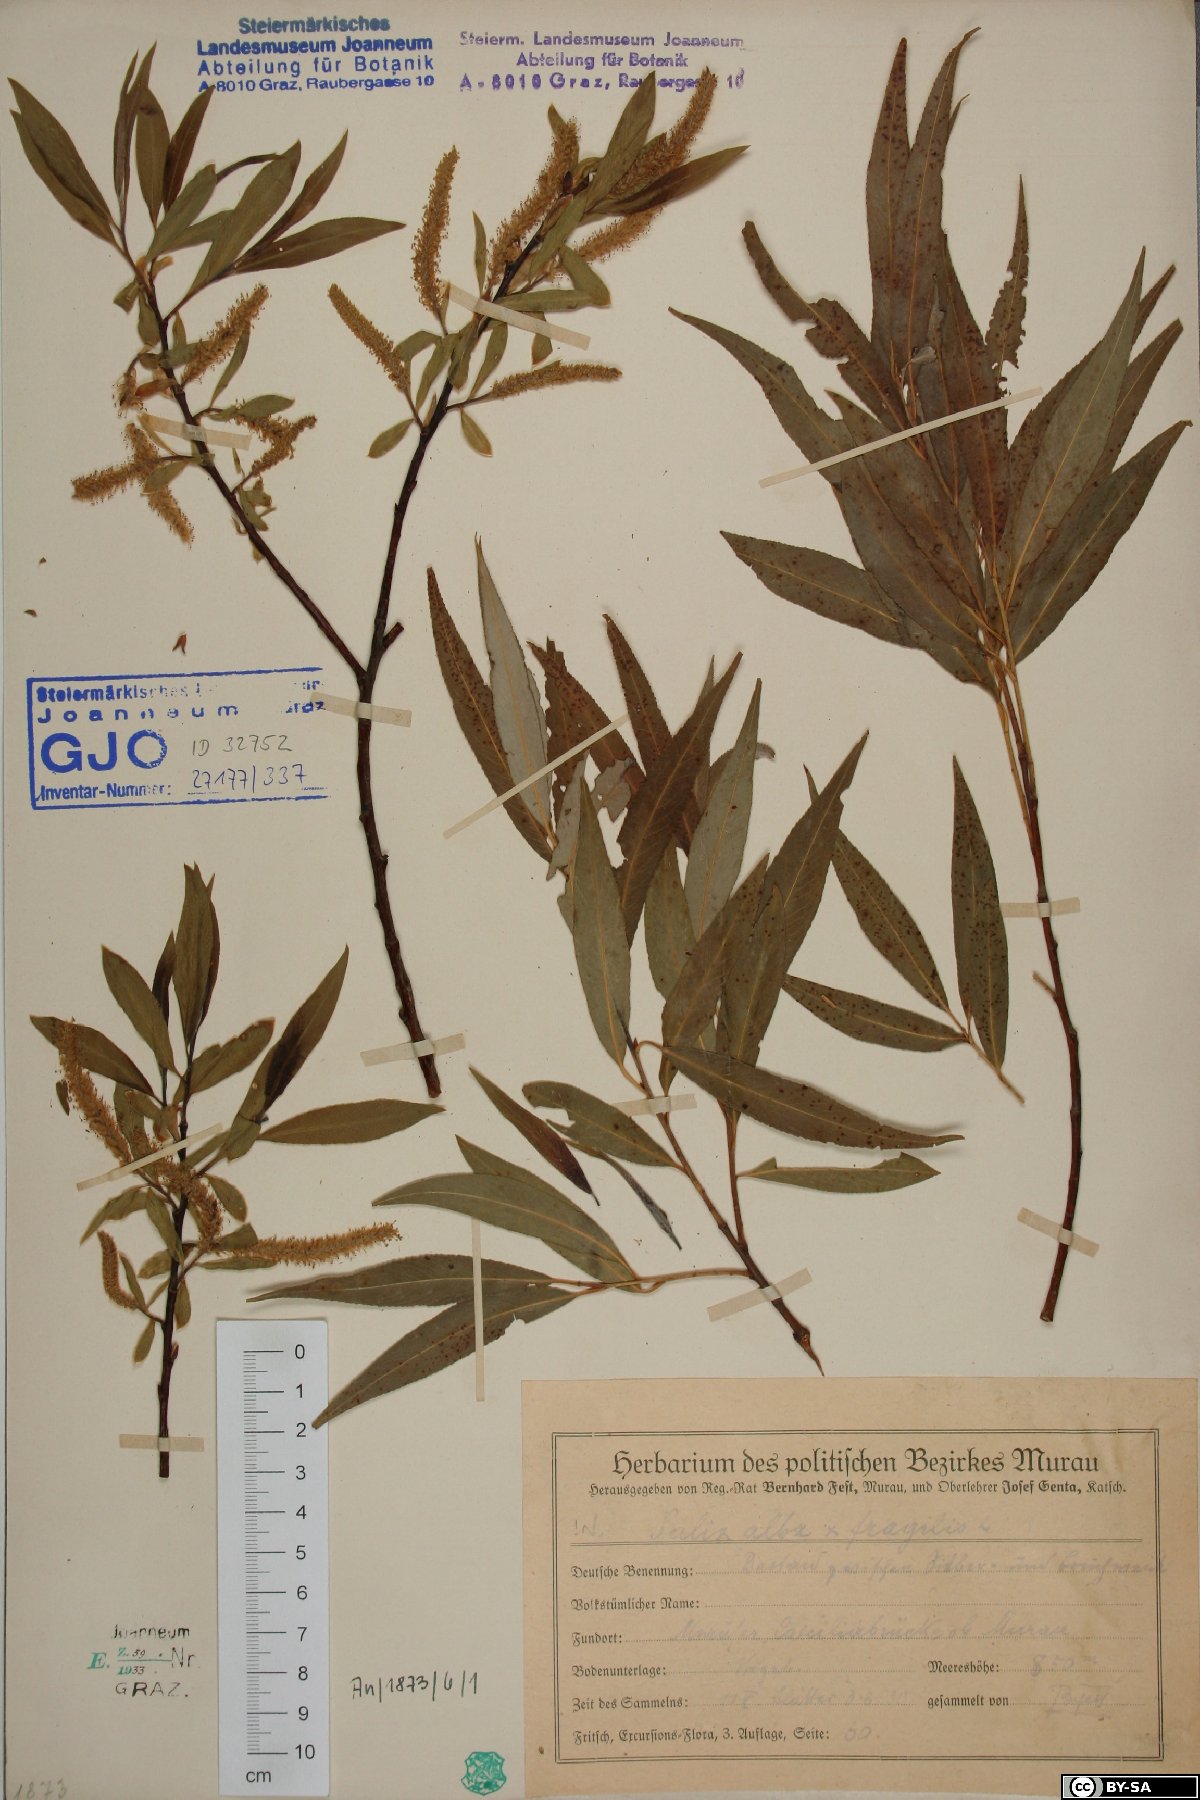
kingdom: Plantae
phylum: Tracheophyta
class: Magnoliopsida
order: Malpighiales
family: Salicaceae
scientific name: Salicaceae
